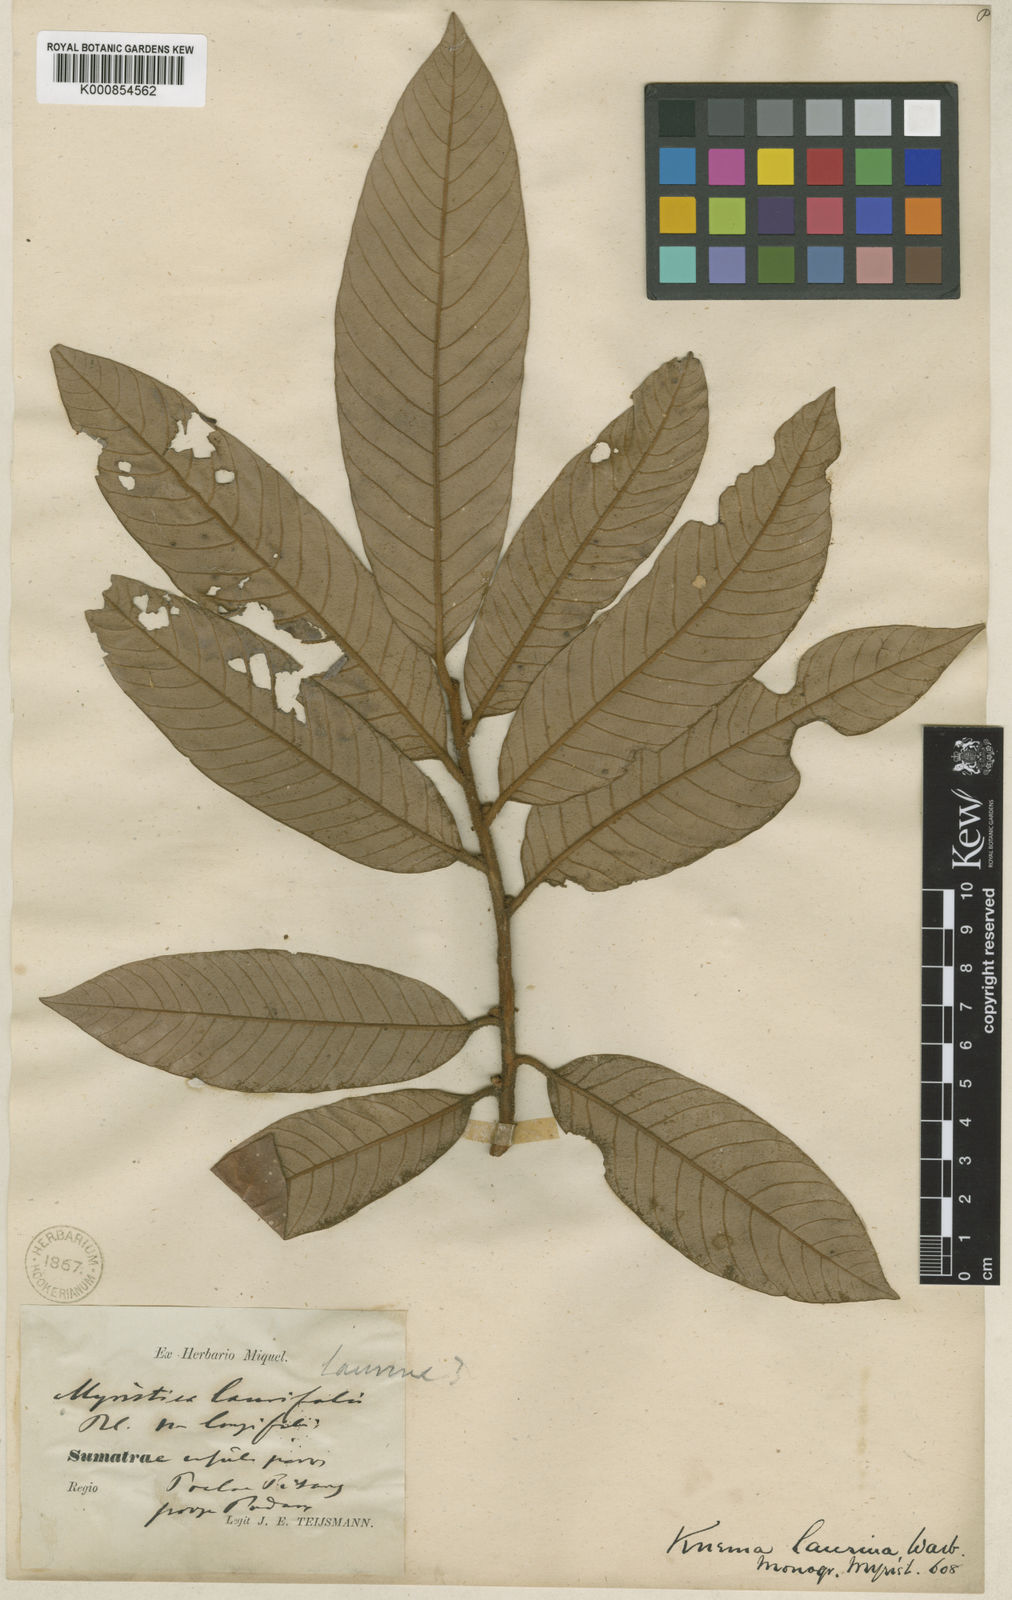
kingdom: Plantae
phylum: Tracheophyta
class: Magnoliopsida
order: Magnoliales
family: Myristicaceae
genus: Knema
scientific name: Knema laurina
